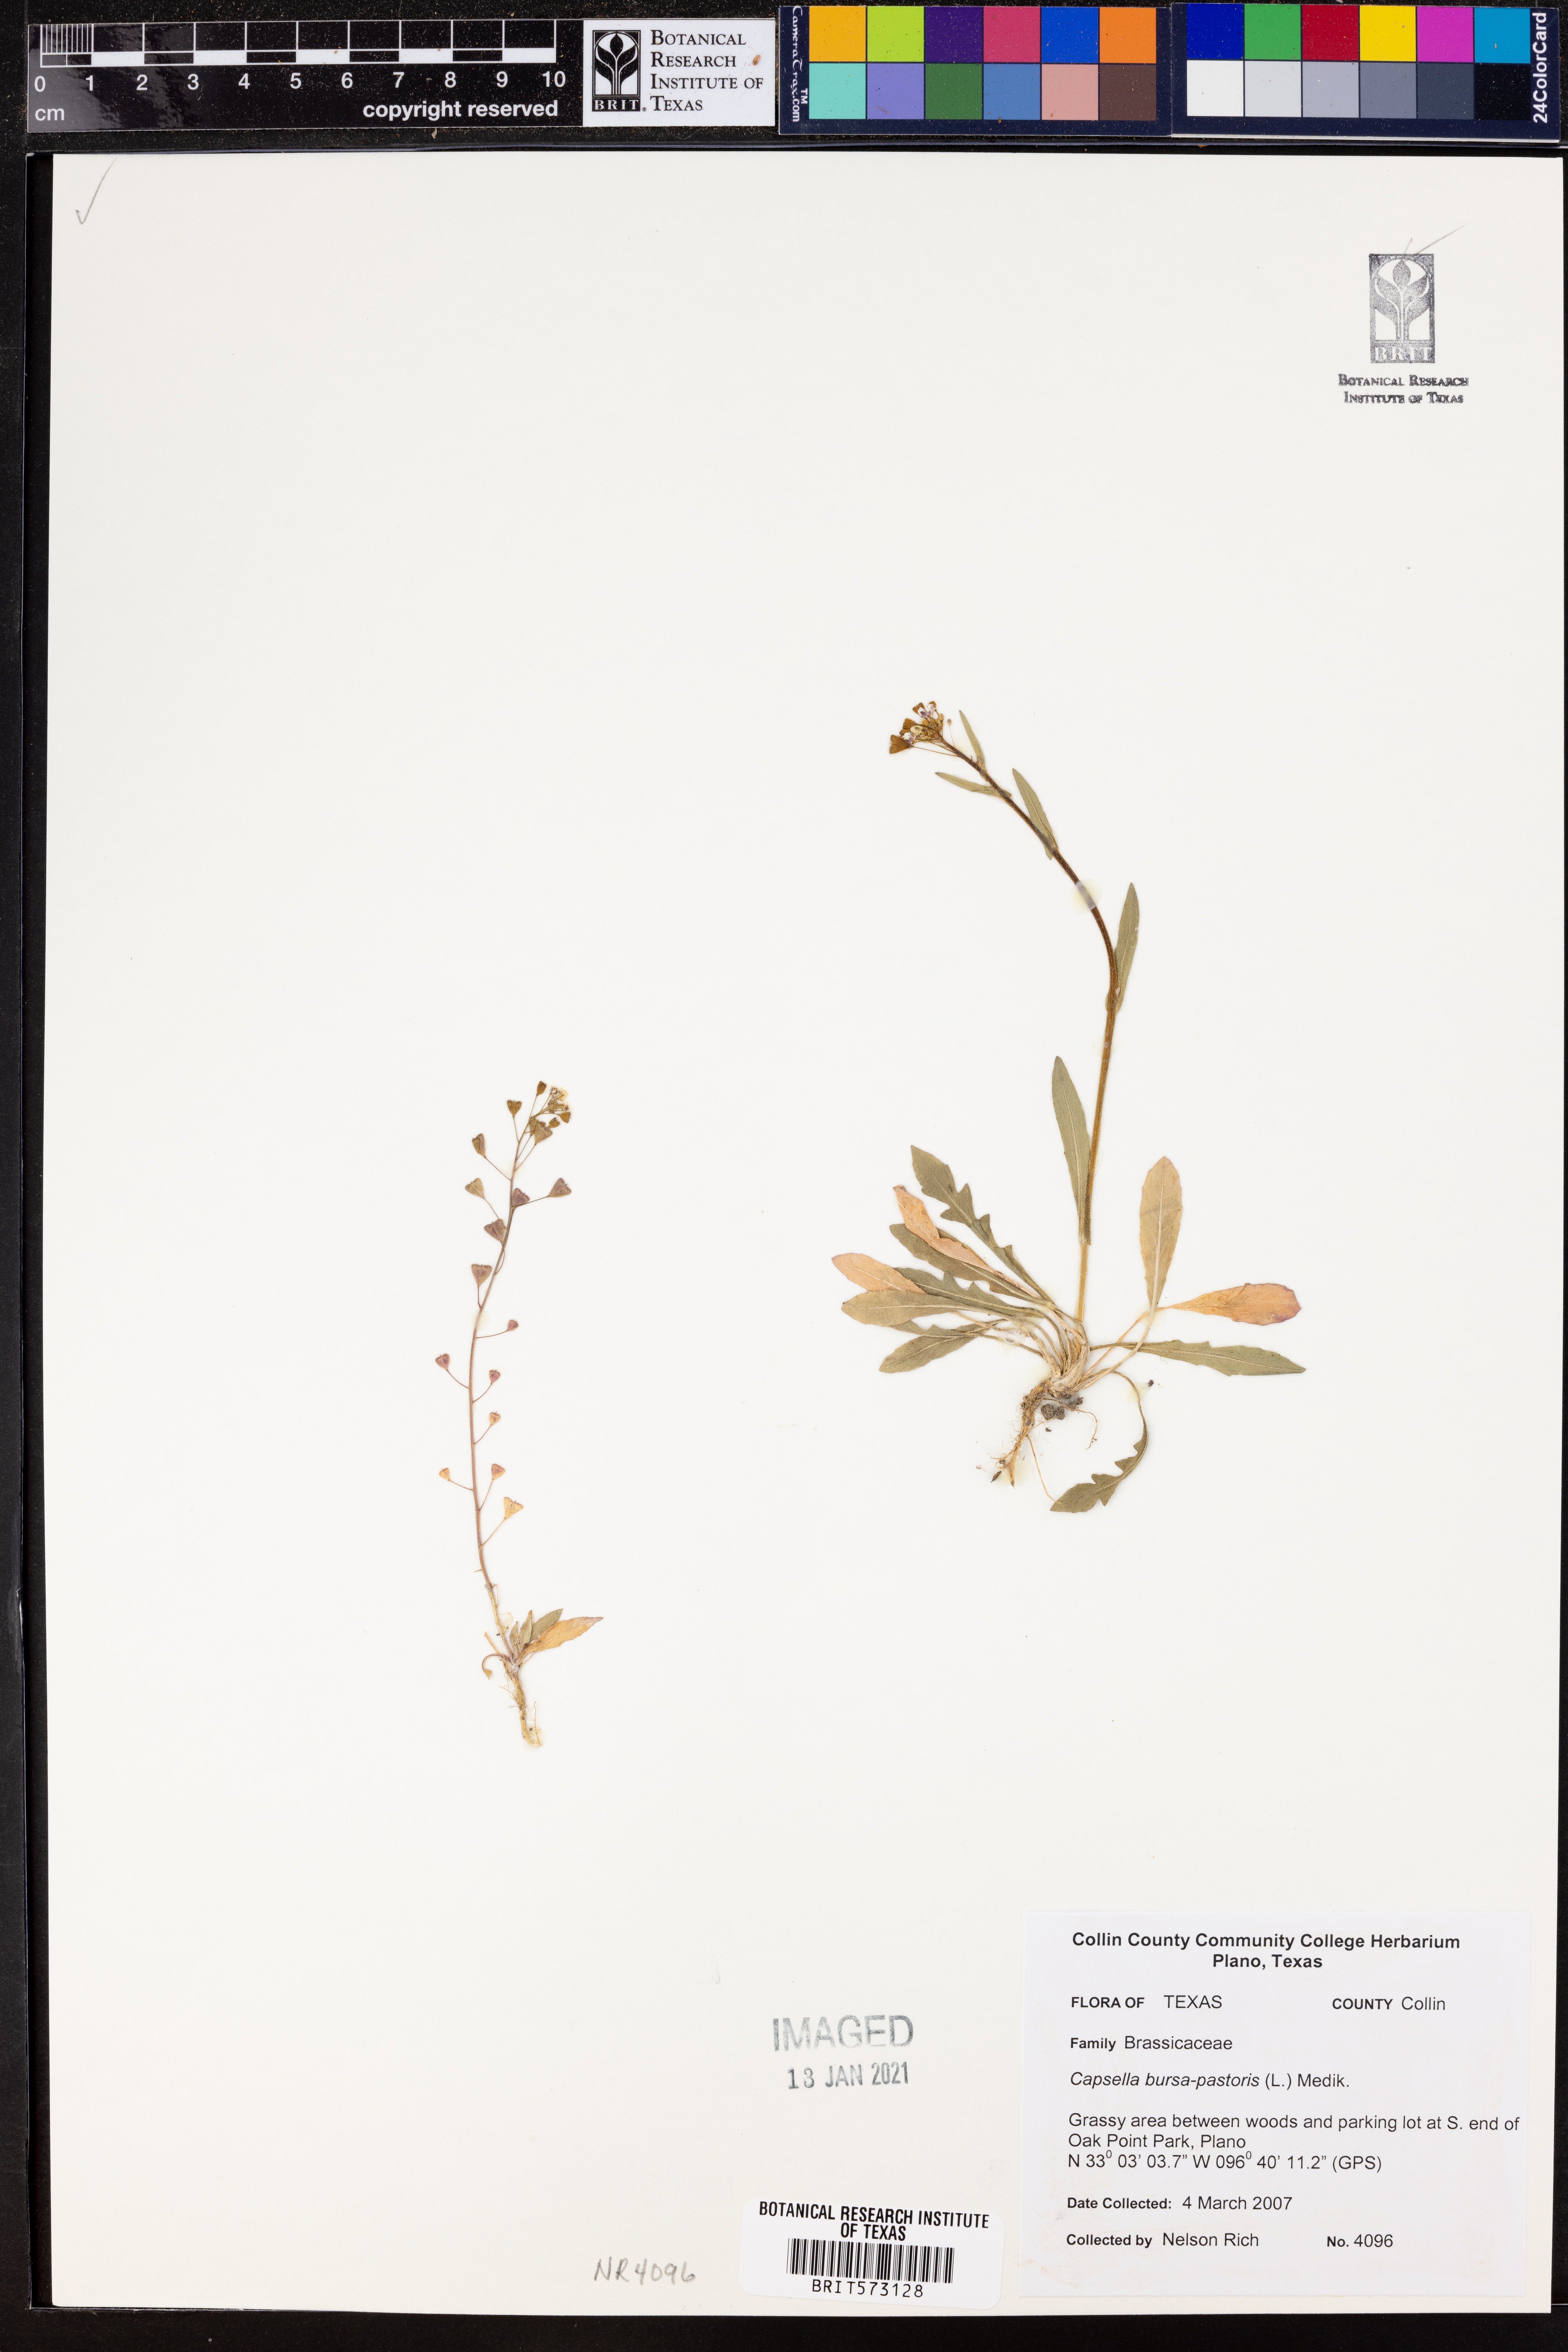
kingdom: Plantae
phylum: Tracheophyta
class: Magnoliopsida
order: Brassicales
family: Brassicaceae
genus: Capsella
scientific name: Capsella bursa-pastoris
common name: Shepherd's purse
